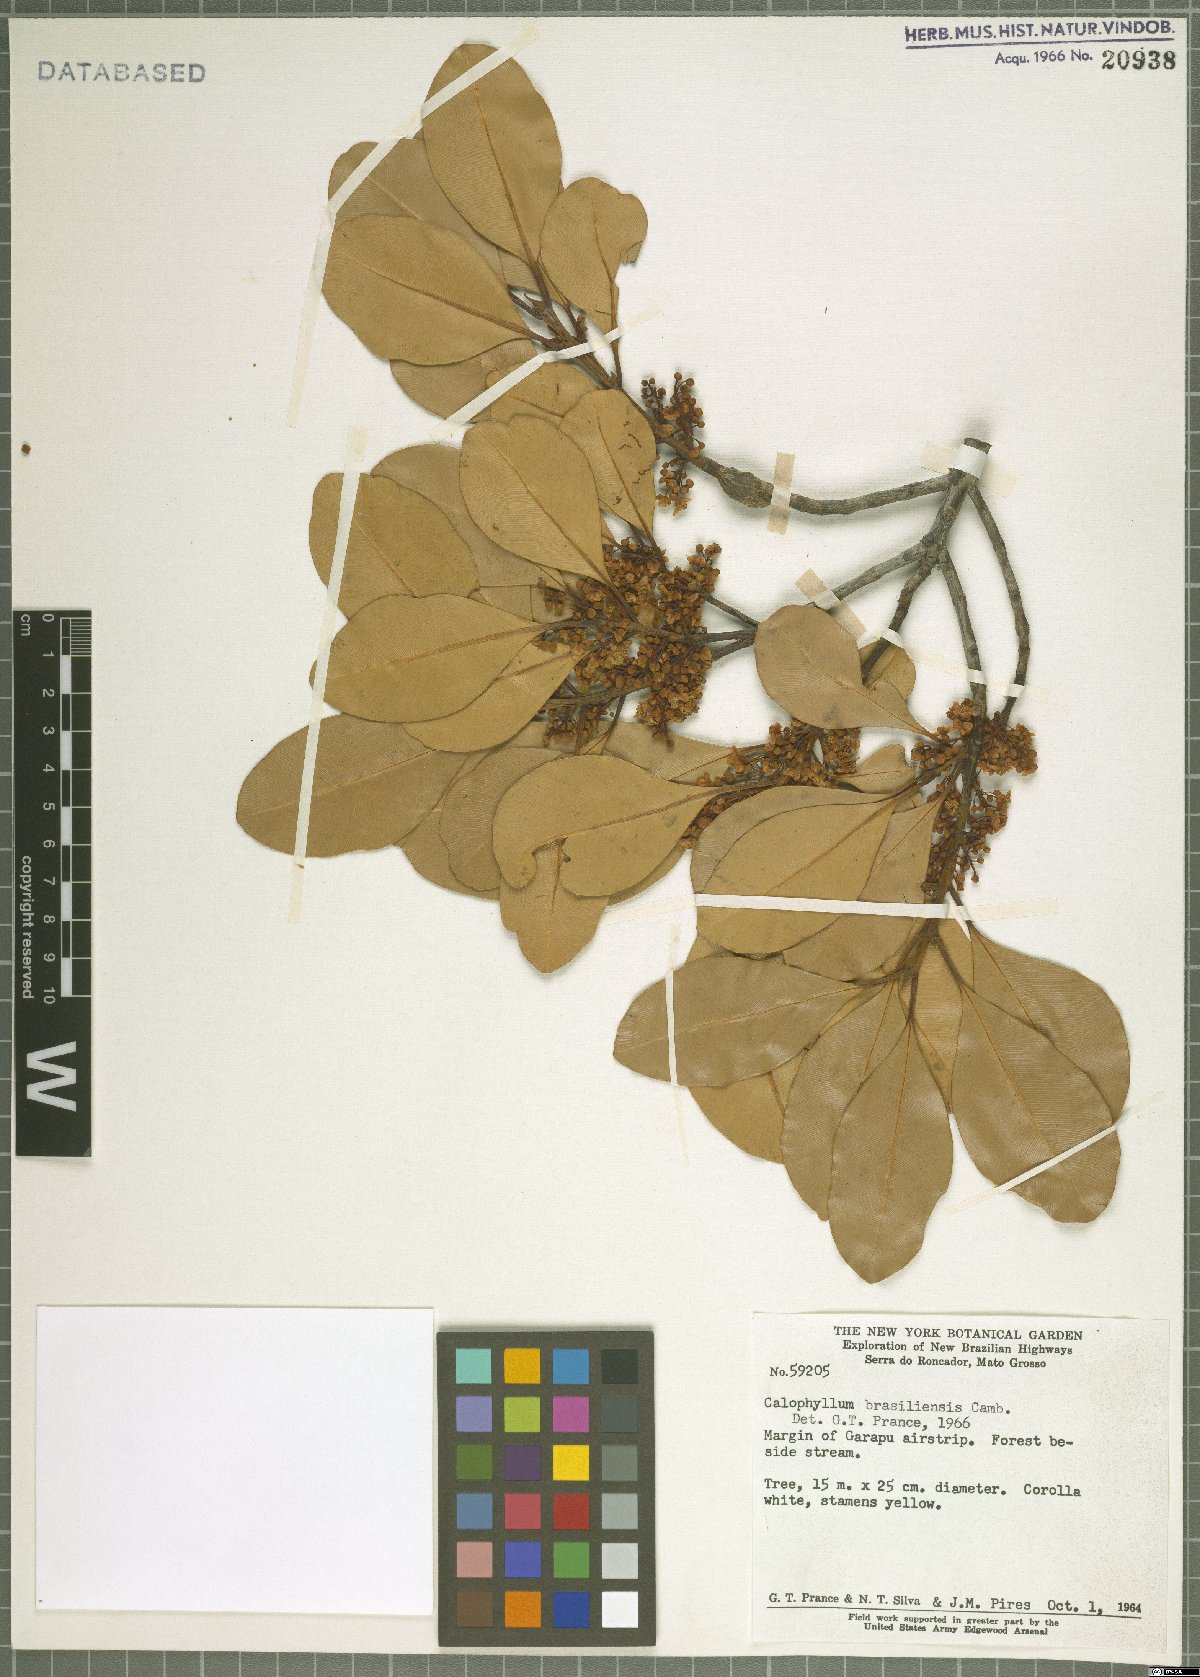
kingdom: Plantae
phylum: Tracheophyta
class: Magnoliopsida
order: Malpighiales
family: Calophyllaceae
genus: Calophyllum
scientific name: Calophyllum brasiliense
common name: Santa maria
